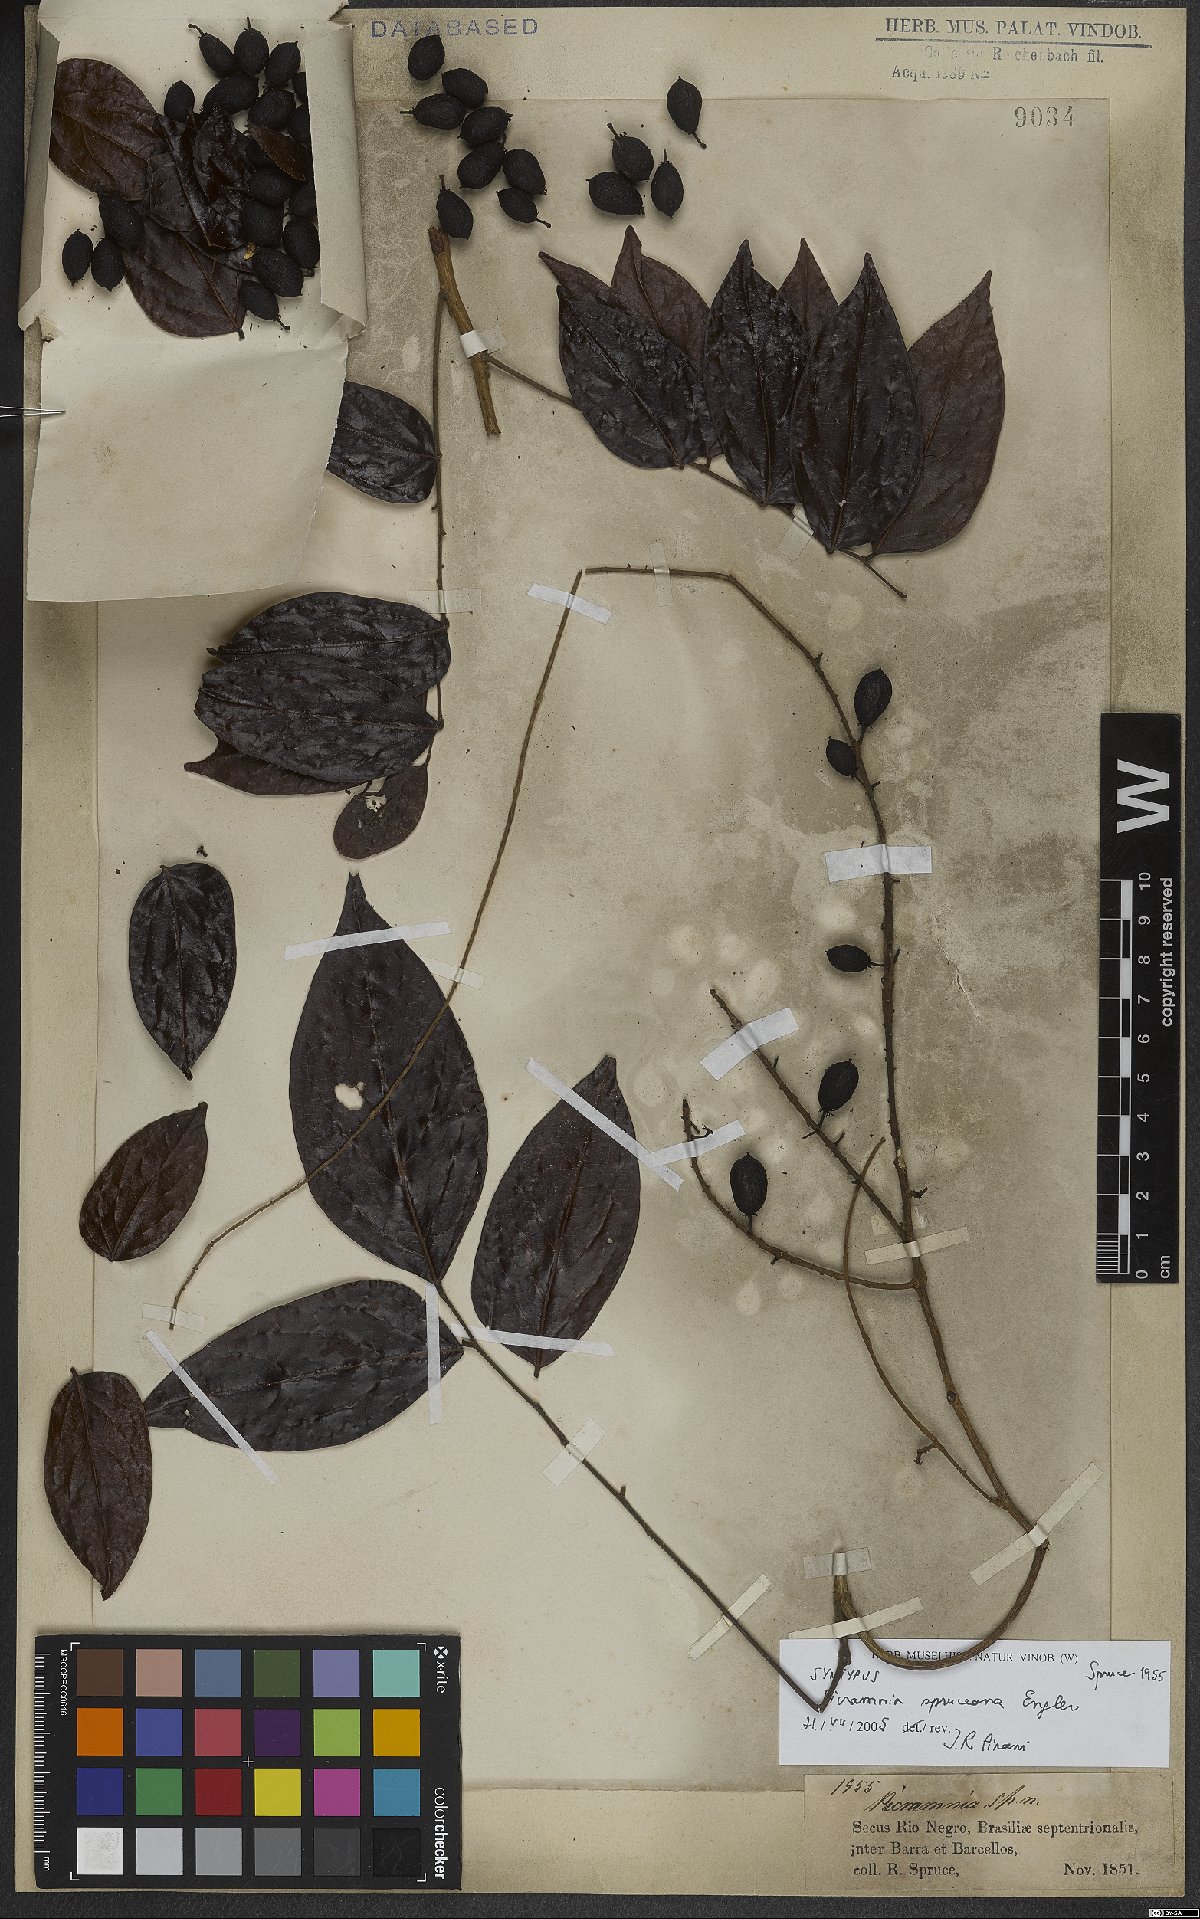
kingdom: Plantae
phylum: Tracheophyta
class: Magnoliopsida
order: Picramniales
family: Picramniaceae
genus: Picramnia
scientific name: Picramnia spruceana
